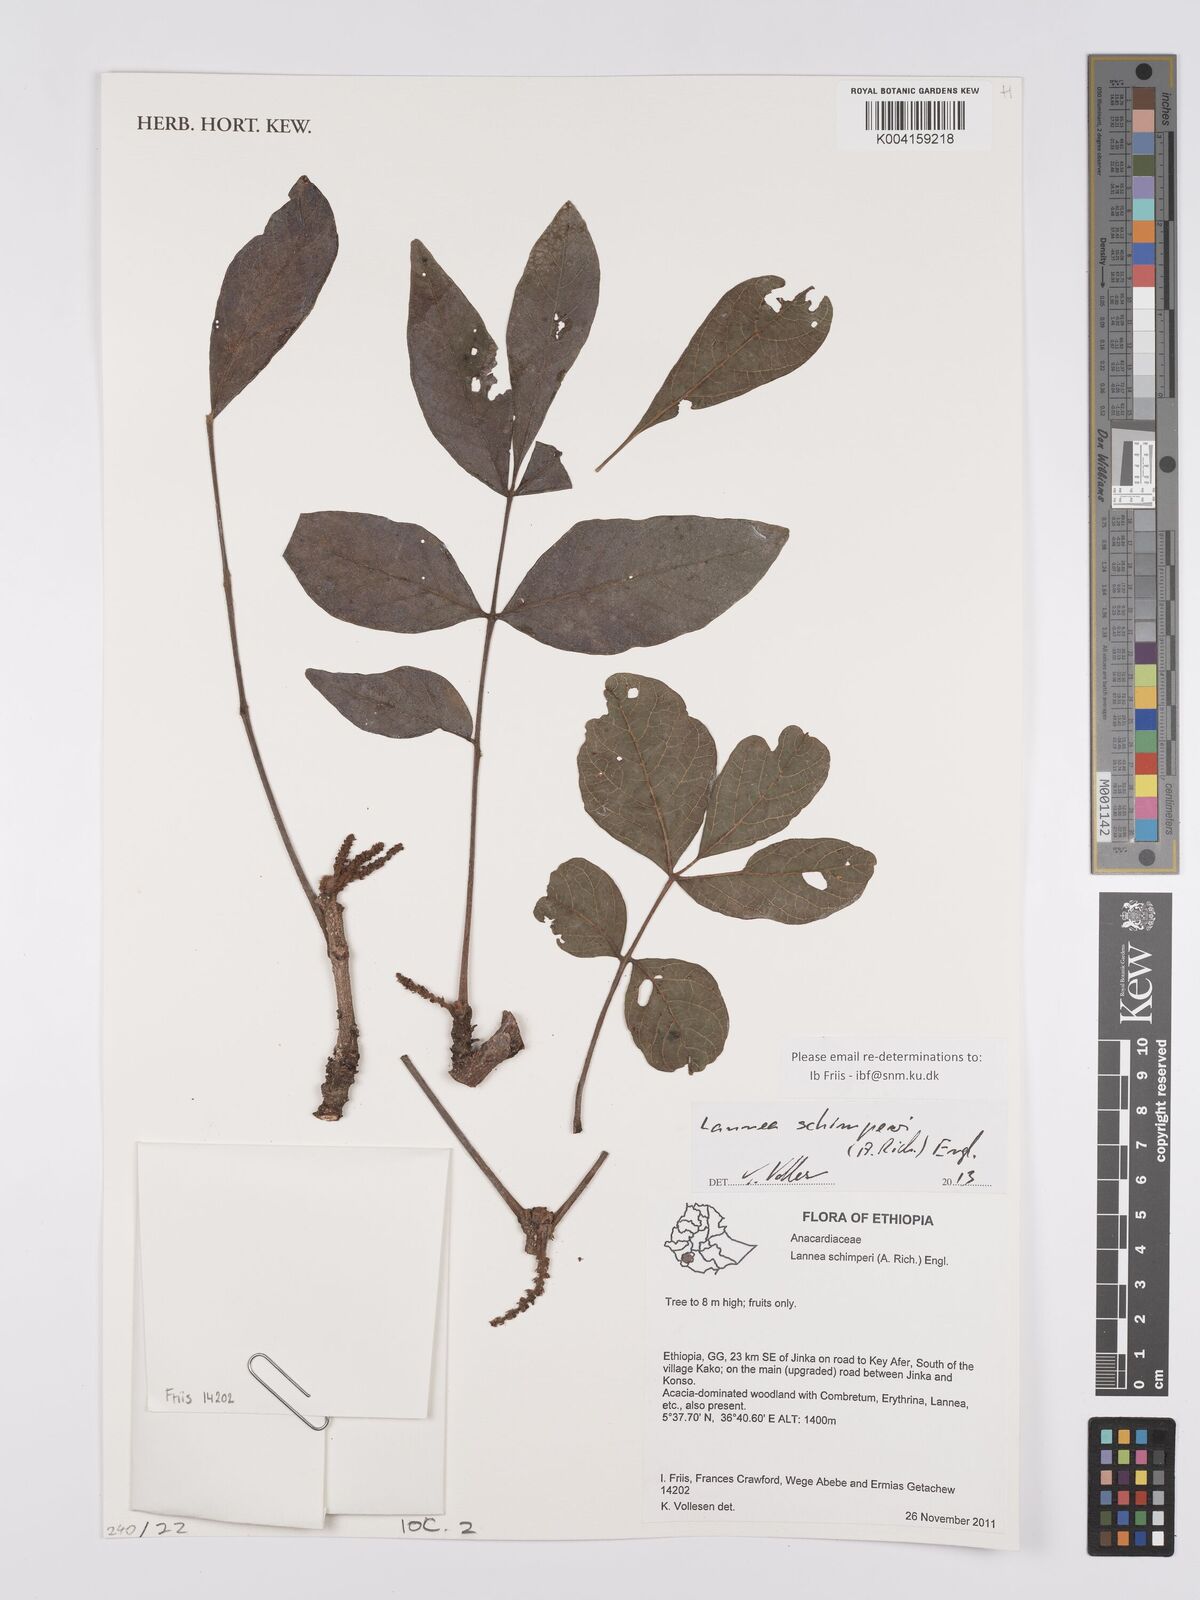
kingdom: Plantae
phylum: Tracheophyta
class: Magnoliopsida
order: Sapindales
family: Anacardiaceae
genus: Lannea
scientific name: Lannea schimperi
